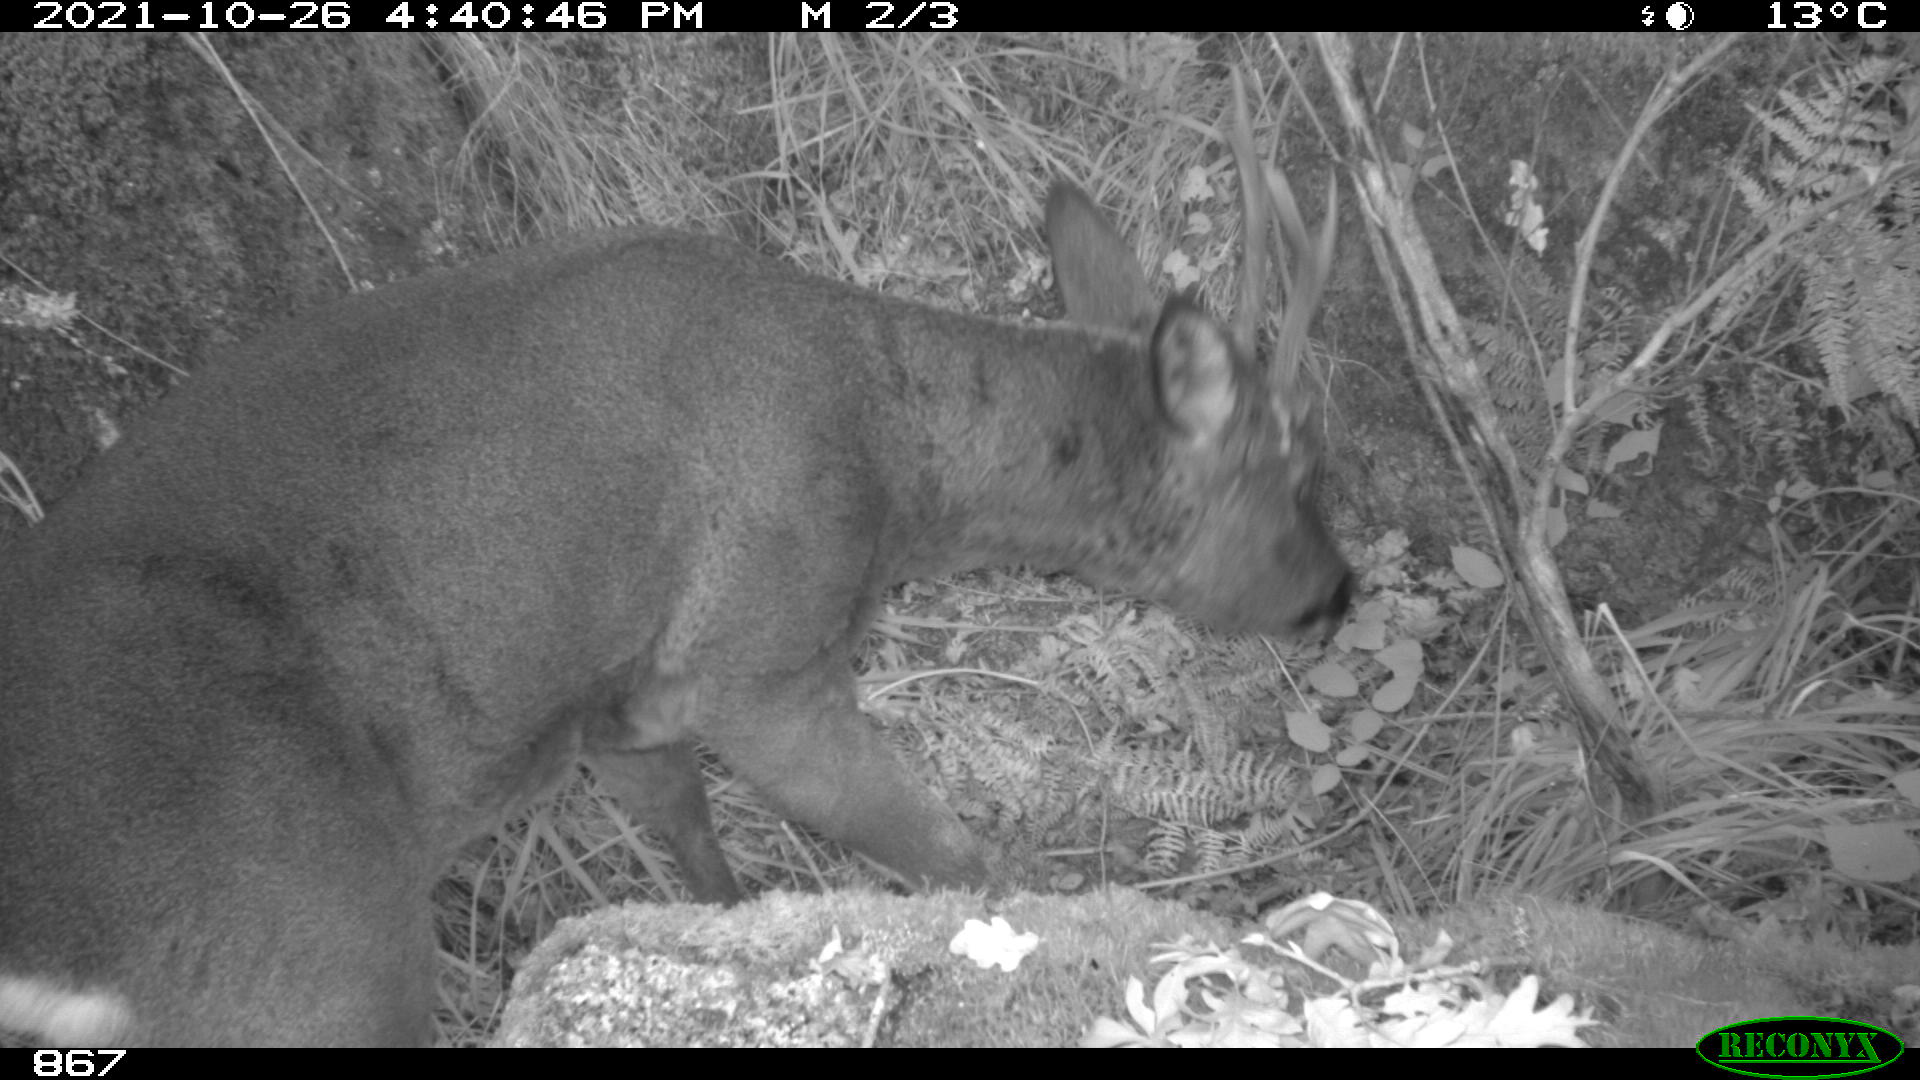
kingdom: Animalia
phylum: Chordata
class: Mammalia
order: Artiodactyla
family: Cervidae
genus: Capreolus
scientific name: Capreolus capreolus
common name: Western roe deer
